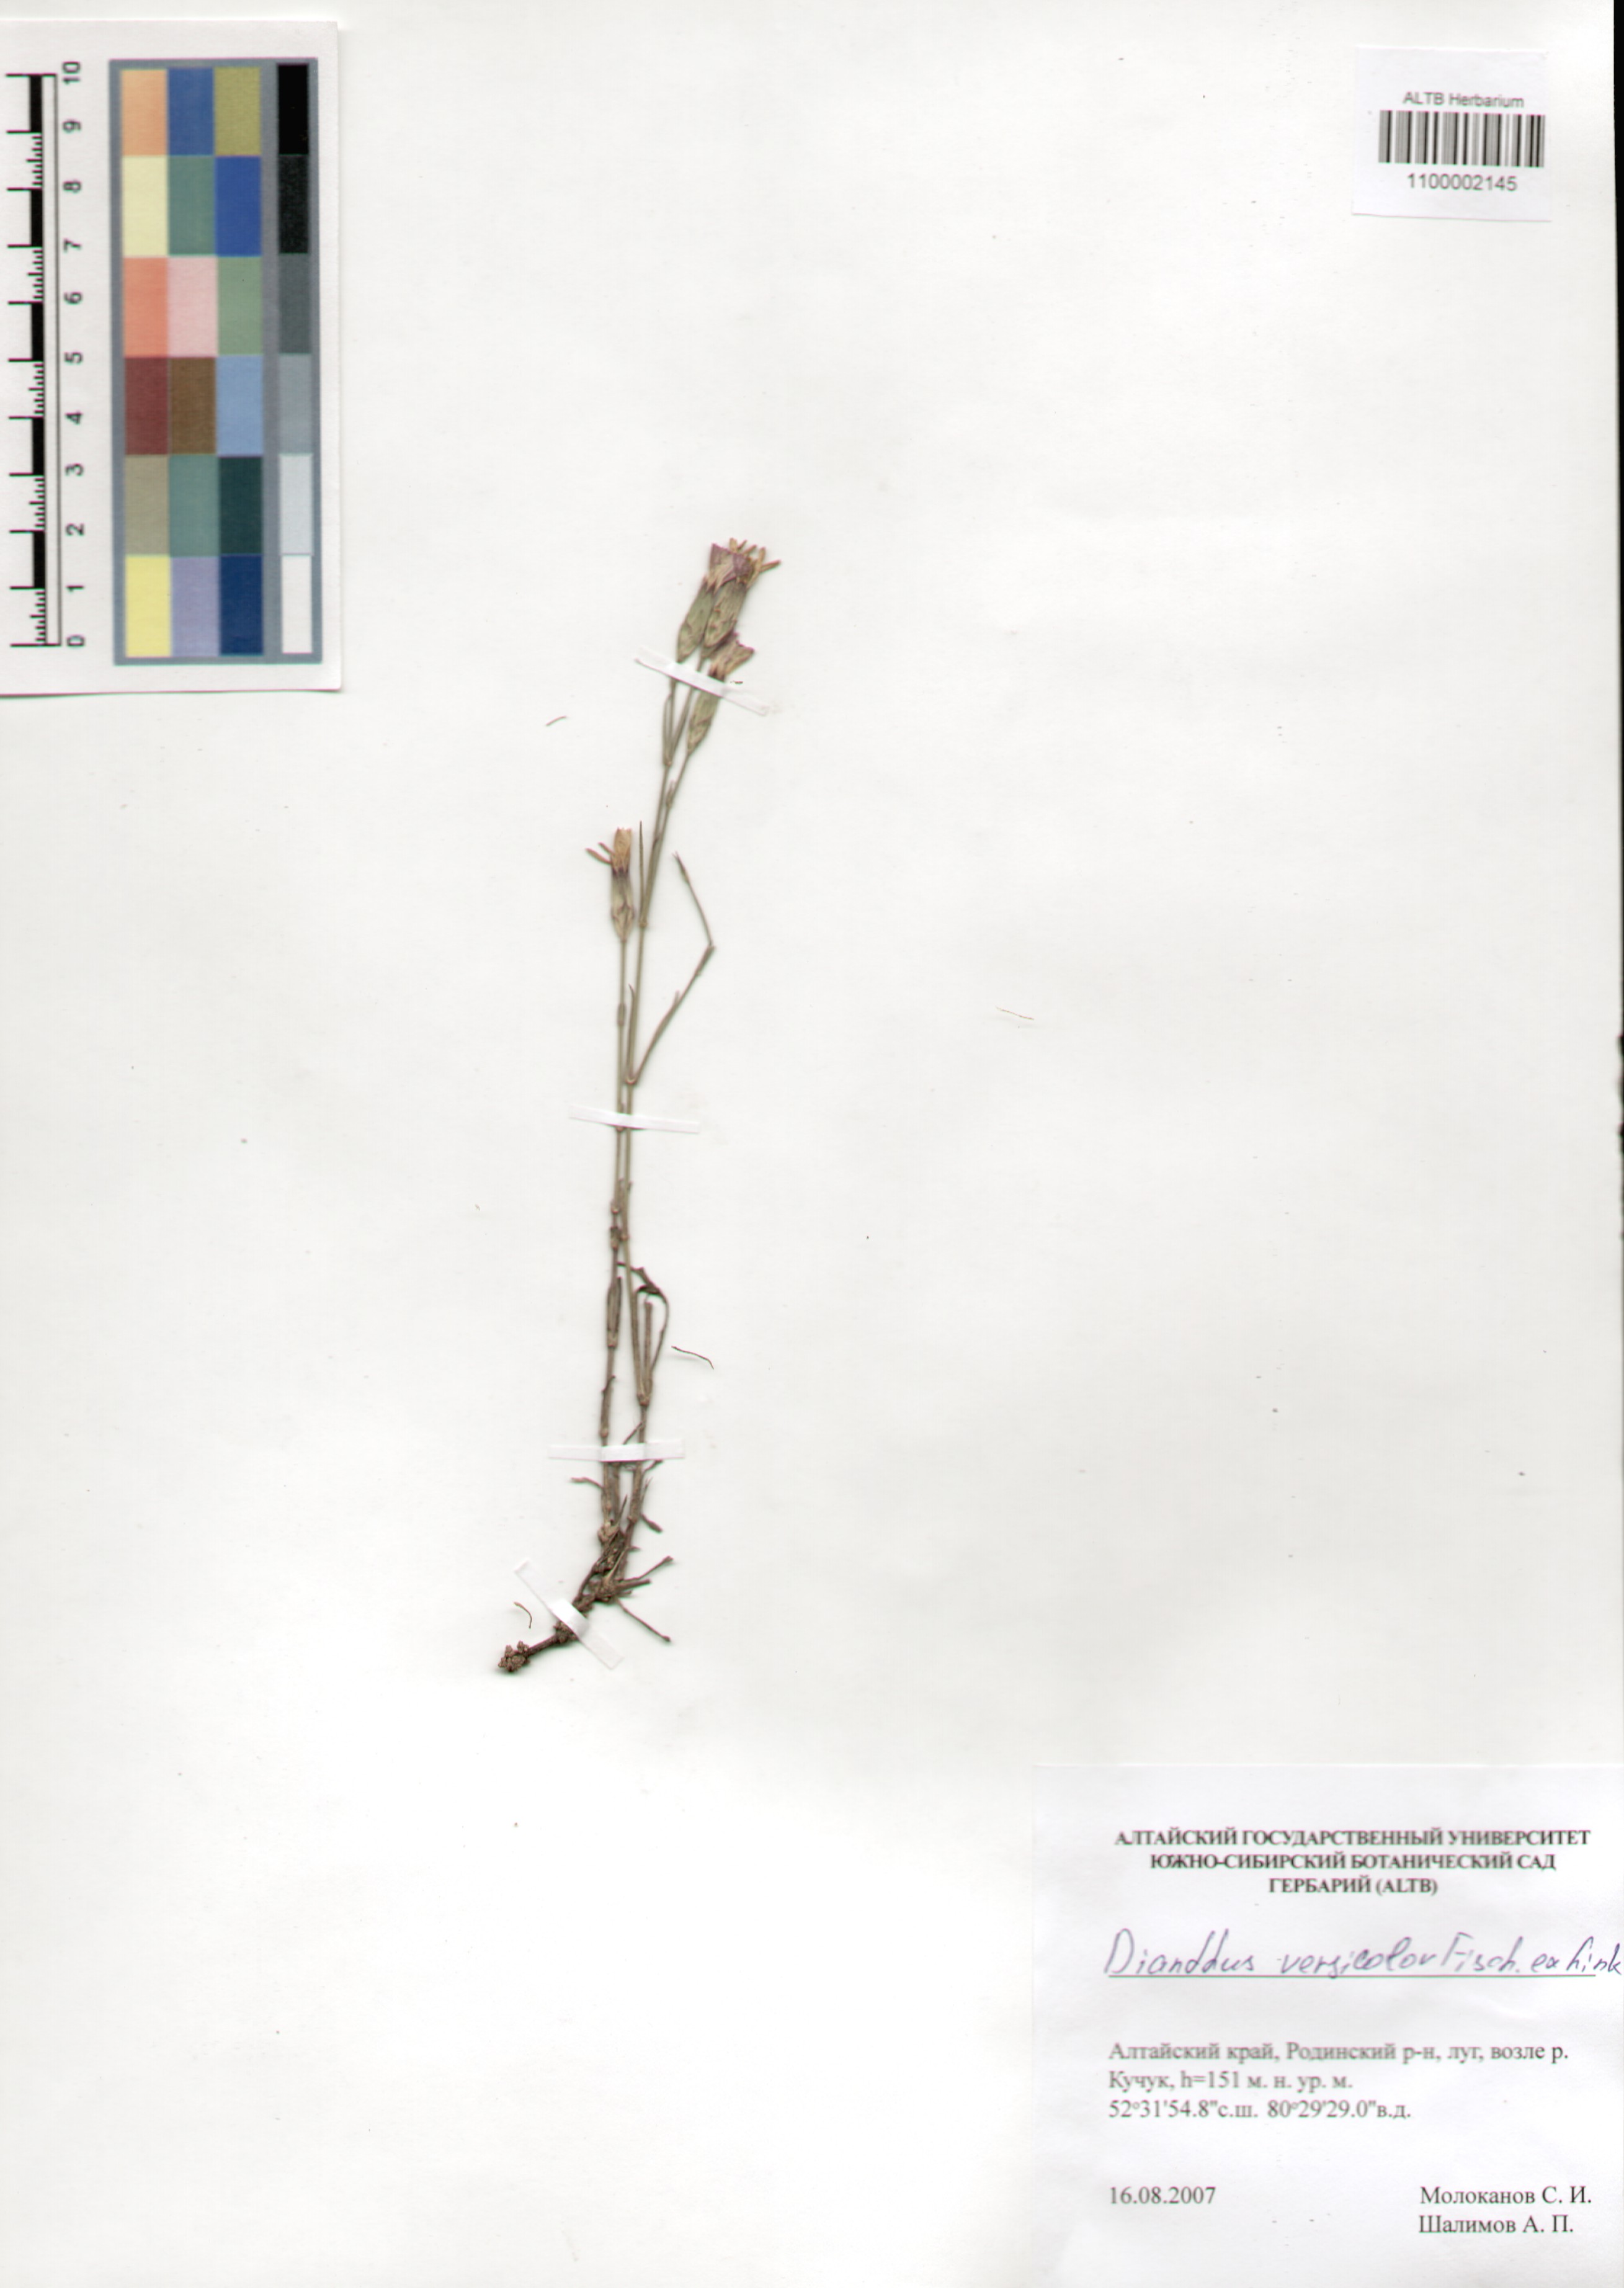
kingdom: Plantae
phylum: Tracheophyta
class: Magnoliopsida
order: Caryophyllales
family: Caryophyllaceae
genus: Dianthus
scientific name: Dianthus chinensis
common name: Rainbow pink
